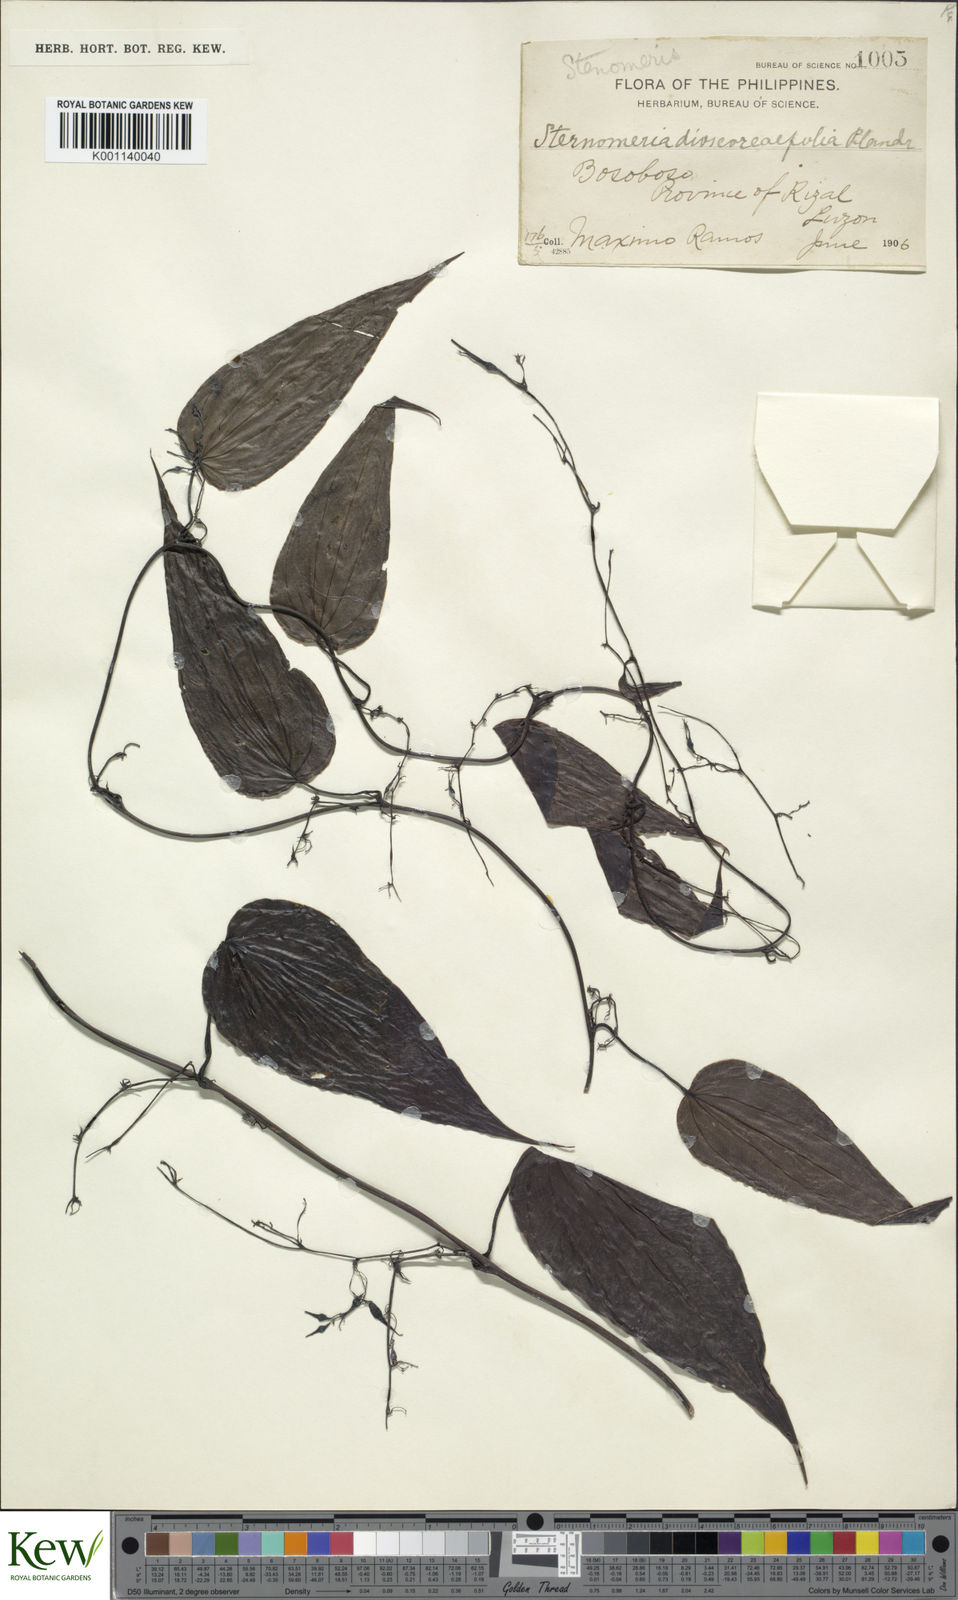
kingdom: Plantae
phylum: Tracheophyta
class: Liliopsida
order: Dioscoreales
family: Dioscoreaceae
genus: Stenomeris
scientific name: Stenomeris dioscoreifolia
